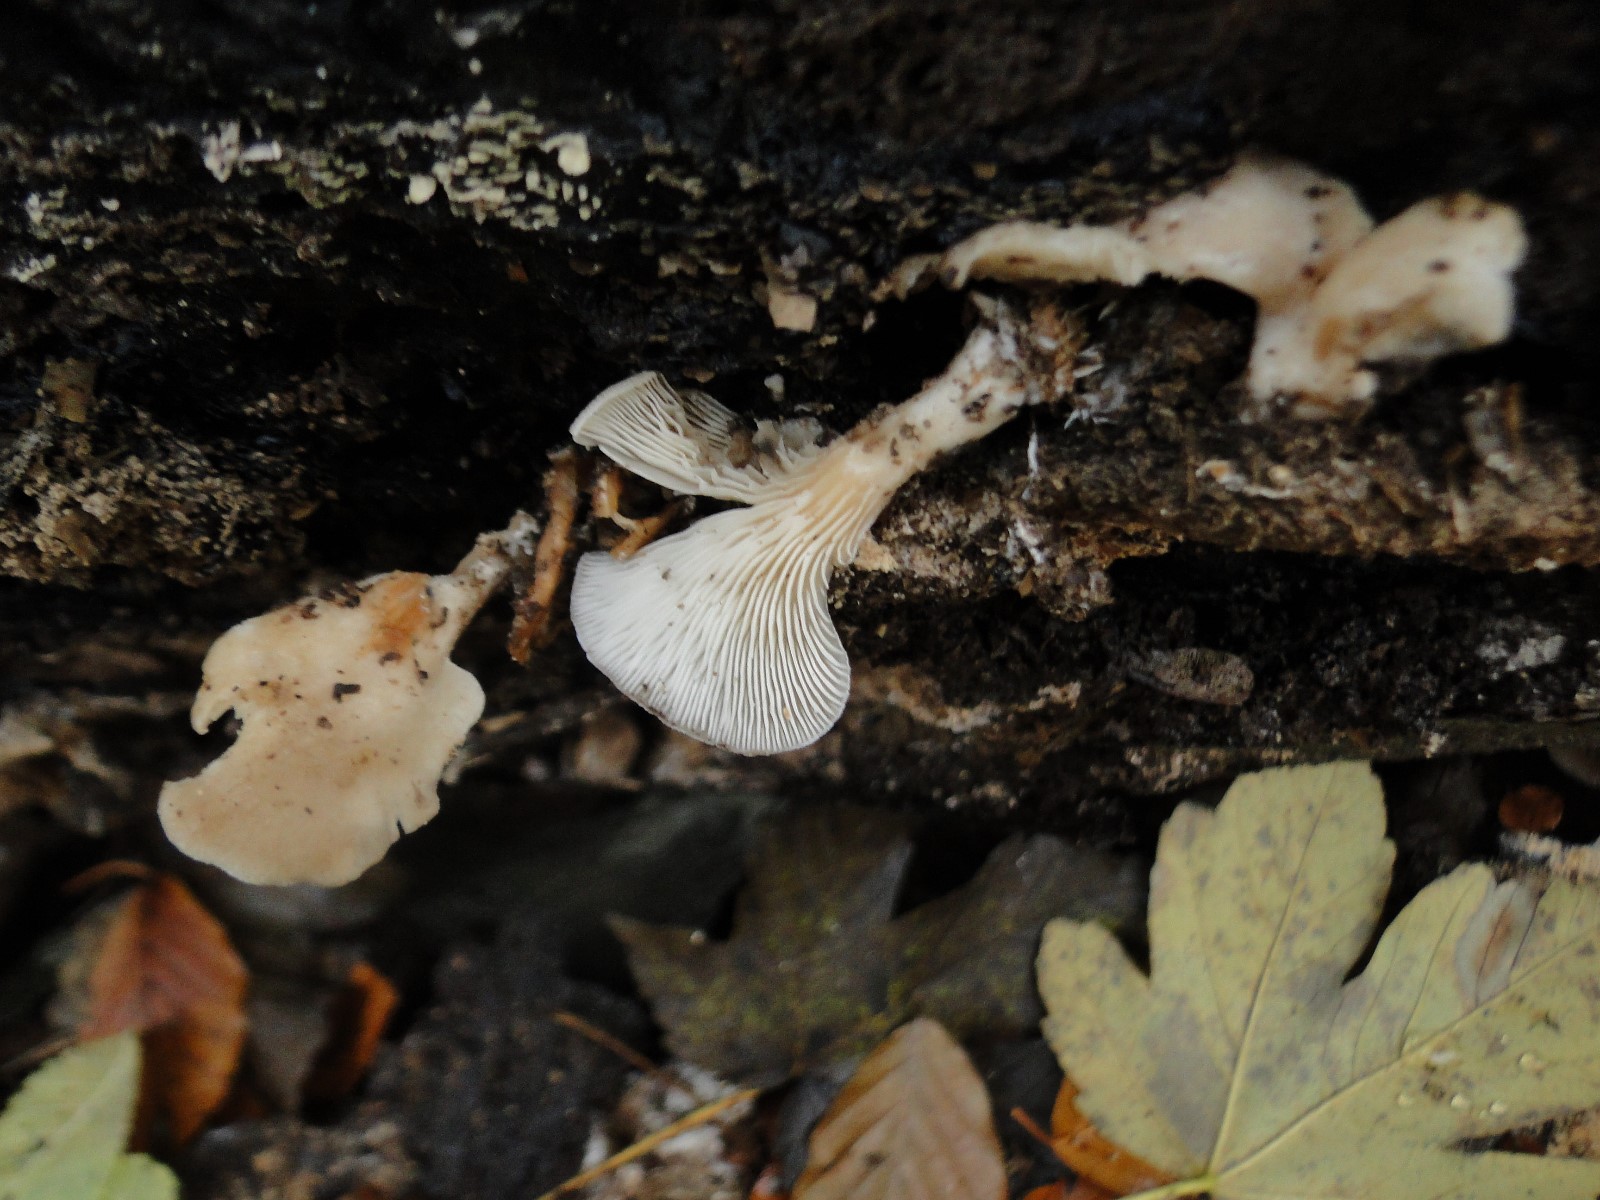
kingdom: Fungi
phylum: Basidiomycota
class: Agaricomycetes
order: Agaricales
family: Pleurotaceae
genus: Hohenbuehelia
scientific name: Hohenbuehelia auriscalpium
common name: spatel-filthat
